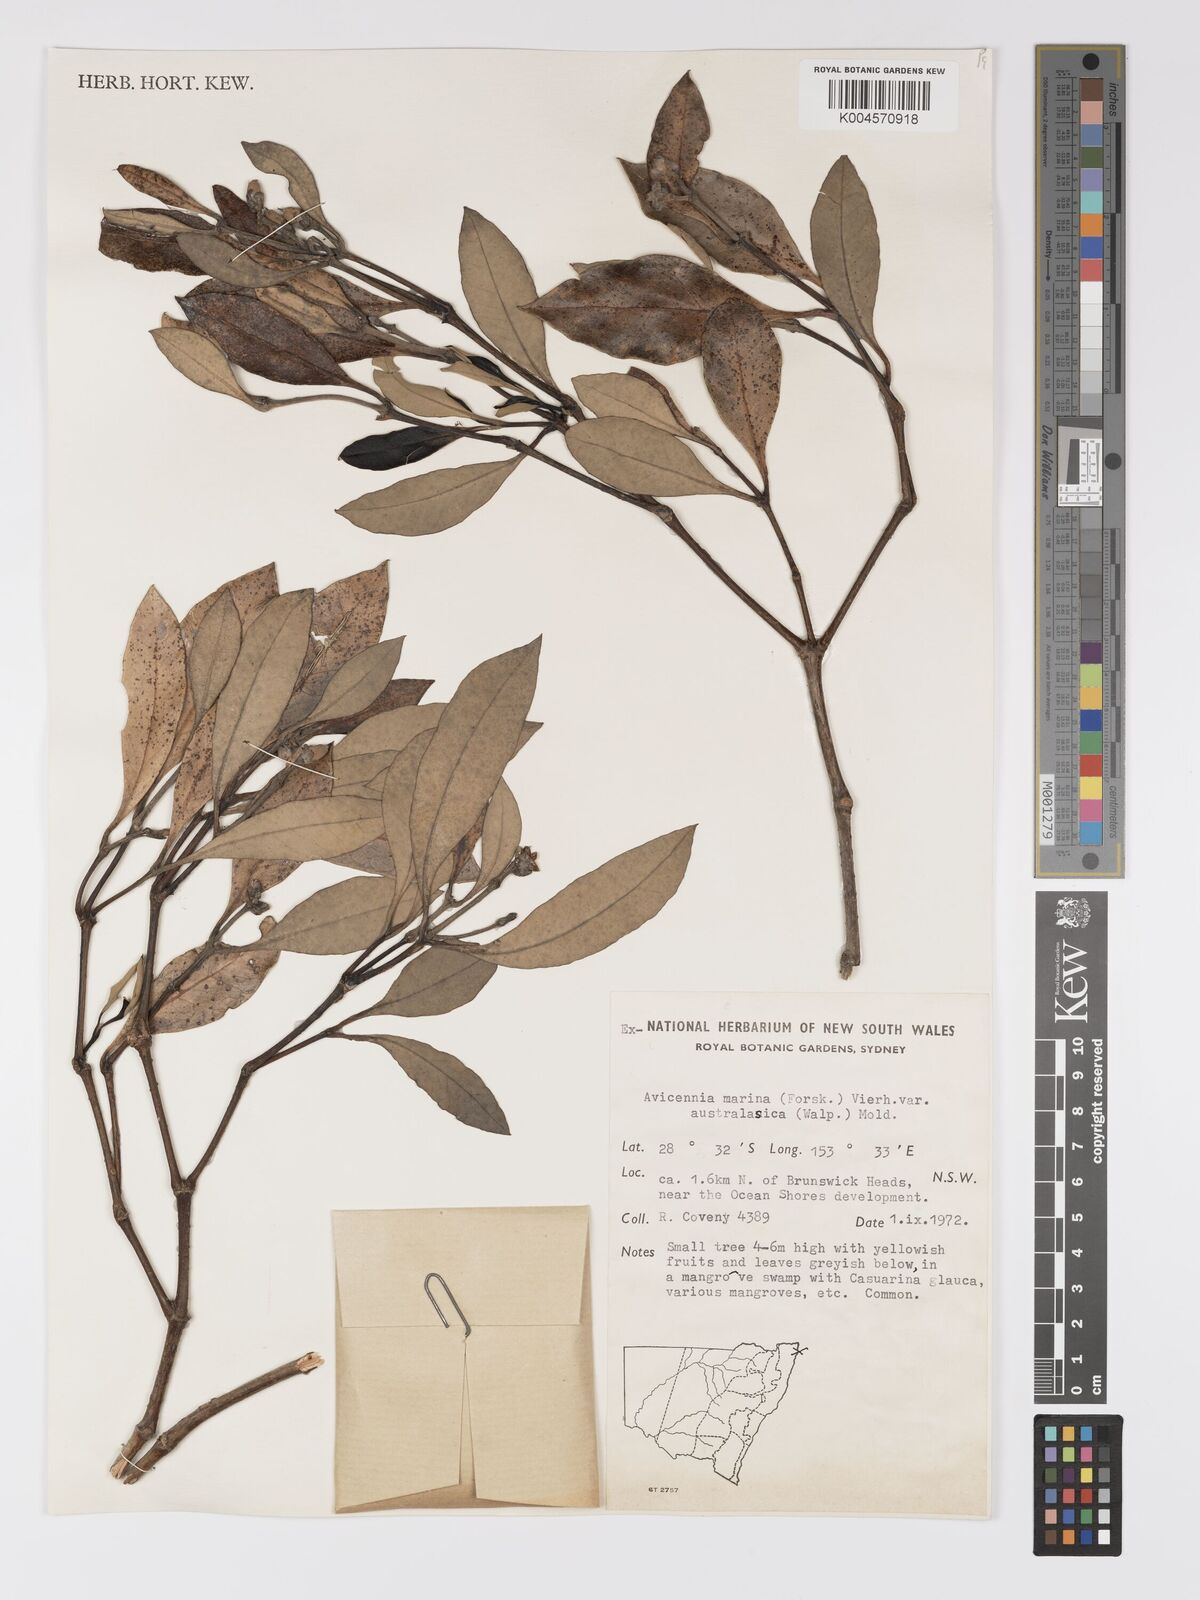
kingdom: Plantae
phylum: Tracheophyta
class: Magnoliopsida
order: Lamiales
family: Acanthaceae
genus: Avicennia
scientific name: Avicennia marina
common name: Gray mangrove
